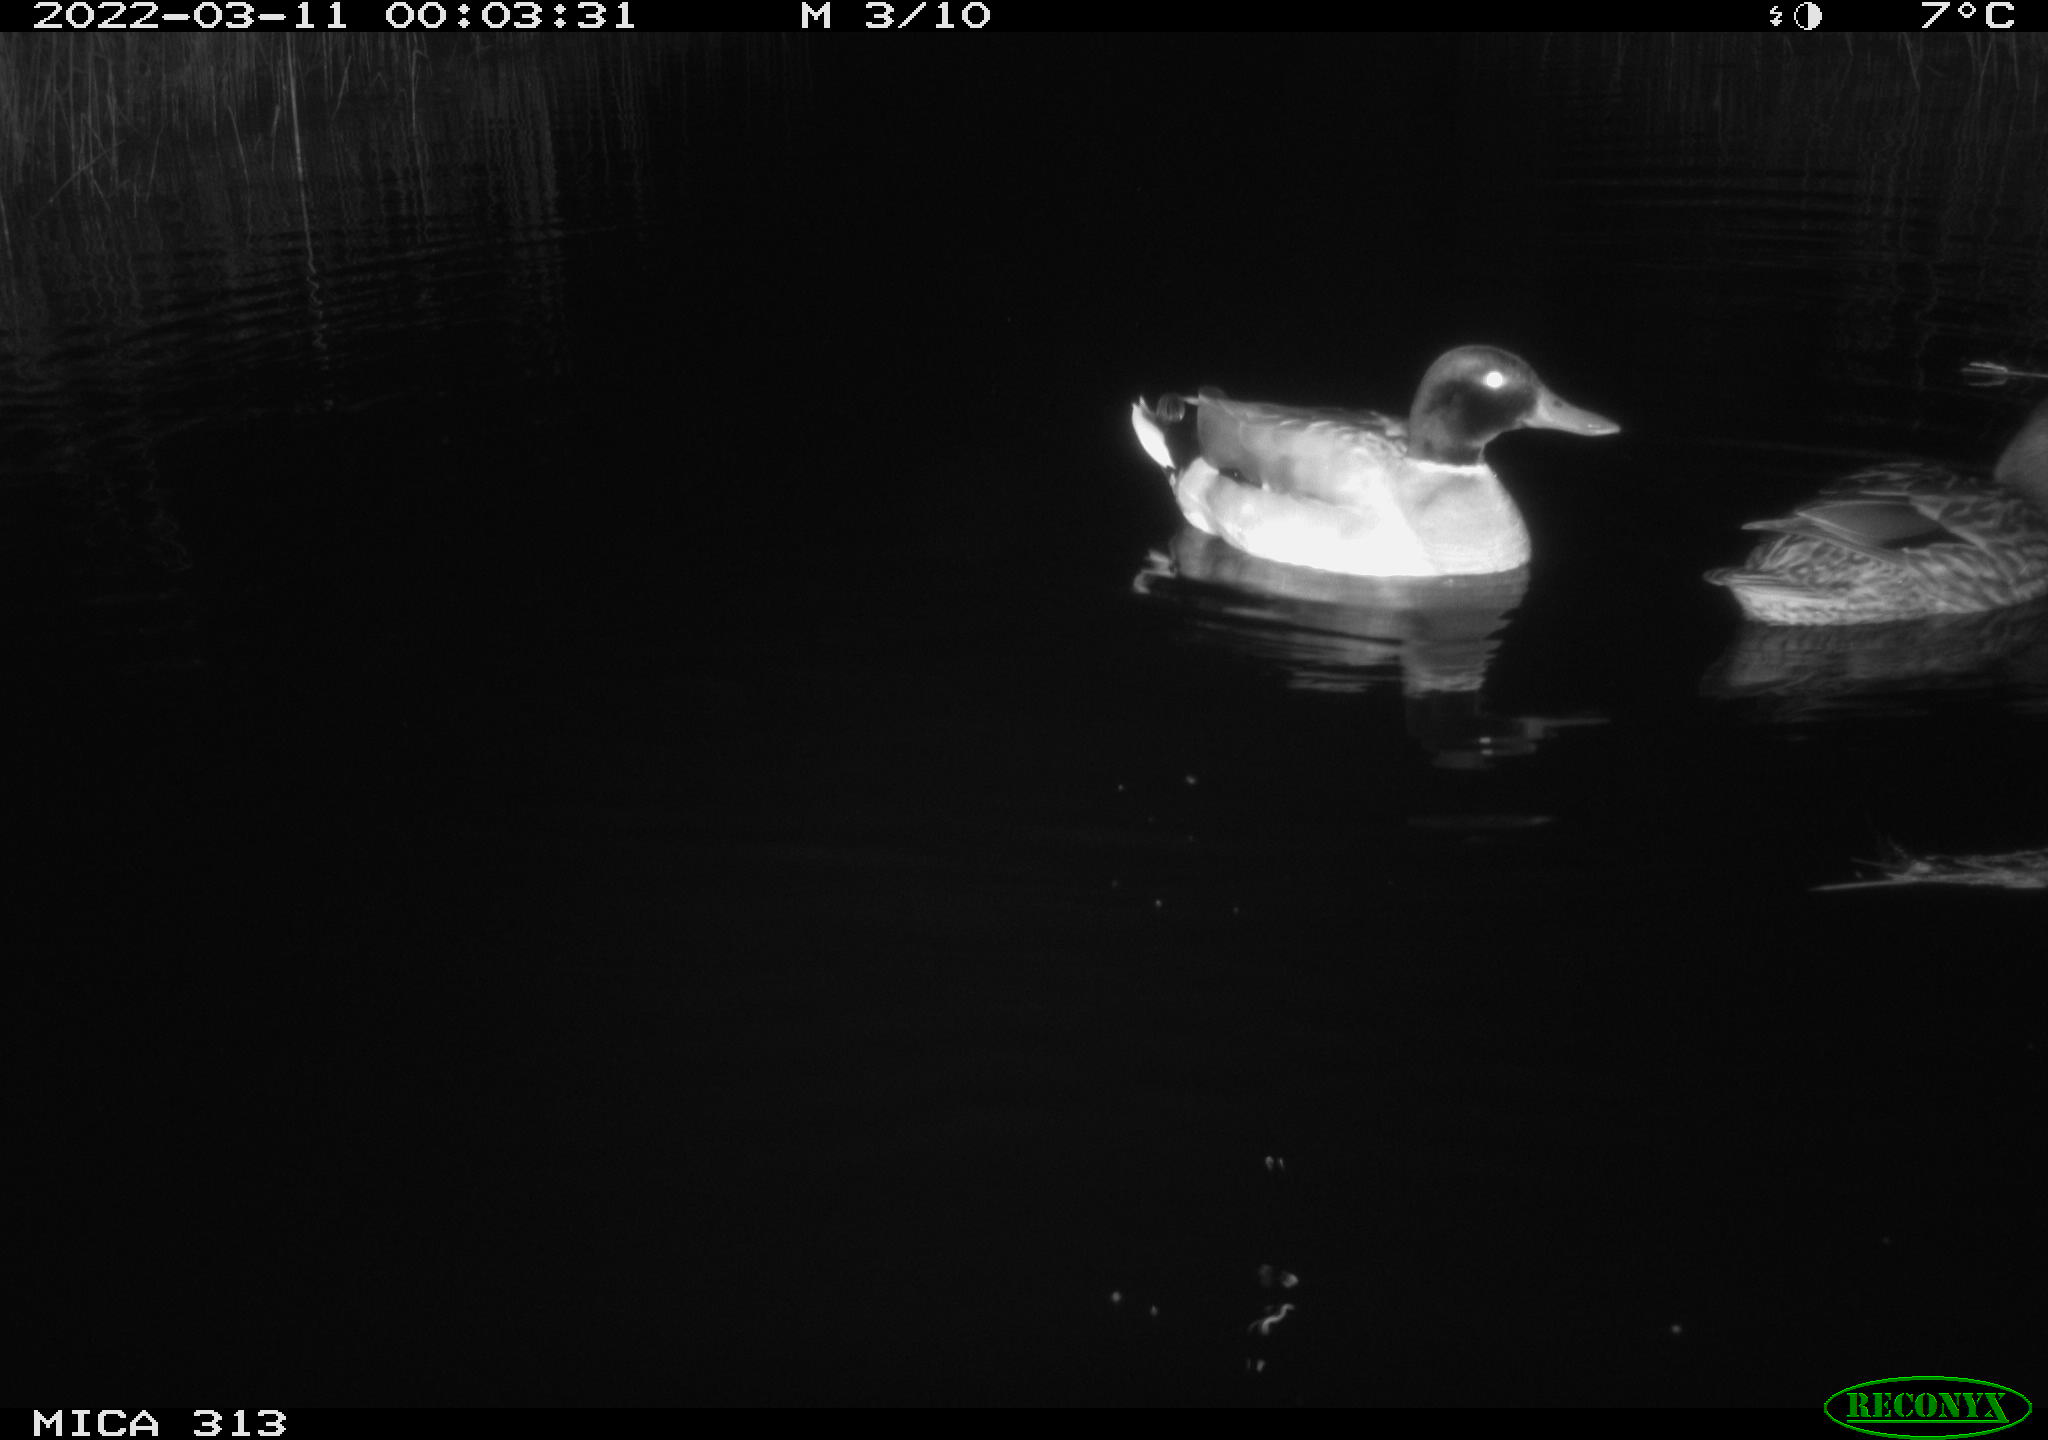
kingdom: Animalia
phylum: Chordata
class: Aves
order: Anseriformes
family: Anatidae
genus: Anas
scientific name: Anas platyrhynchos
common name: Mallard
